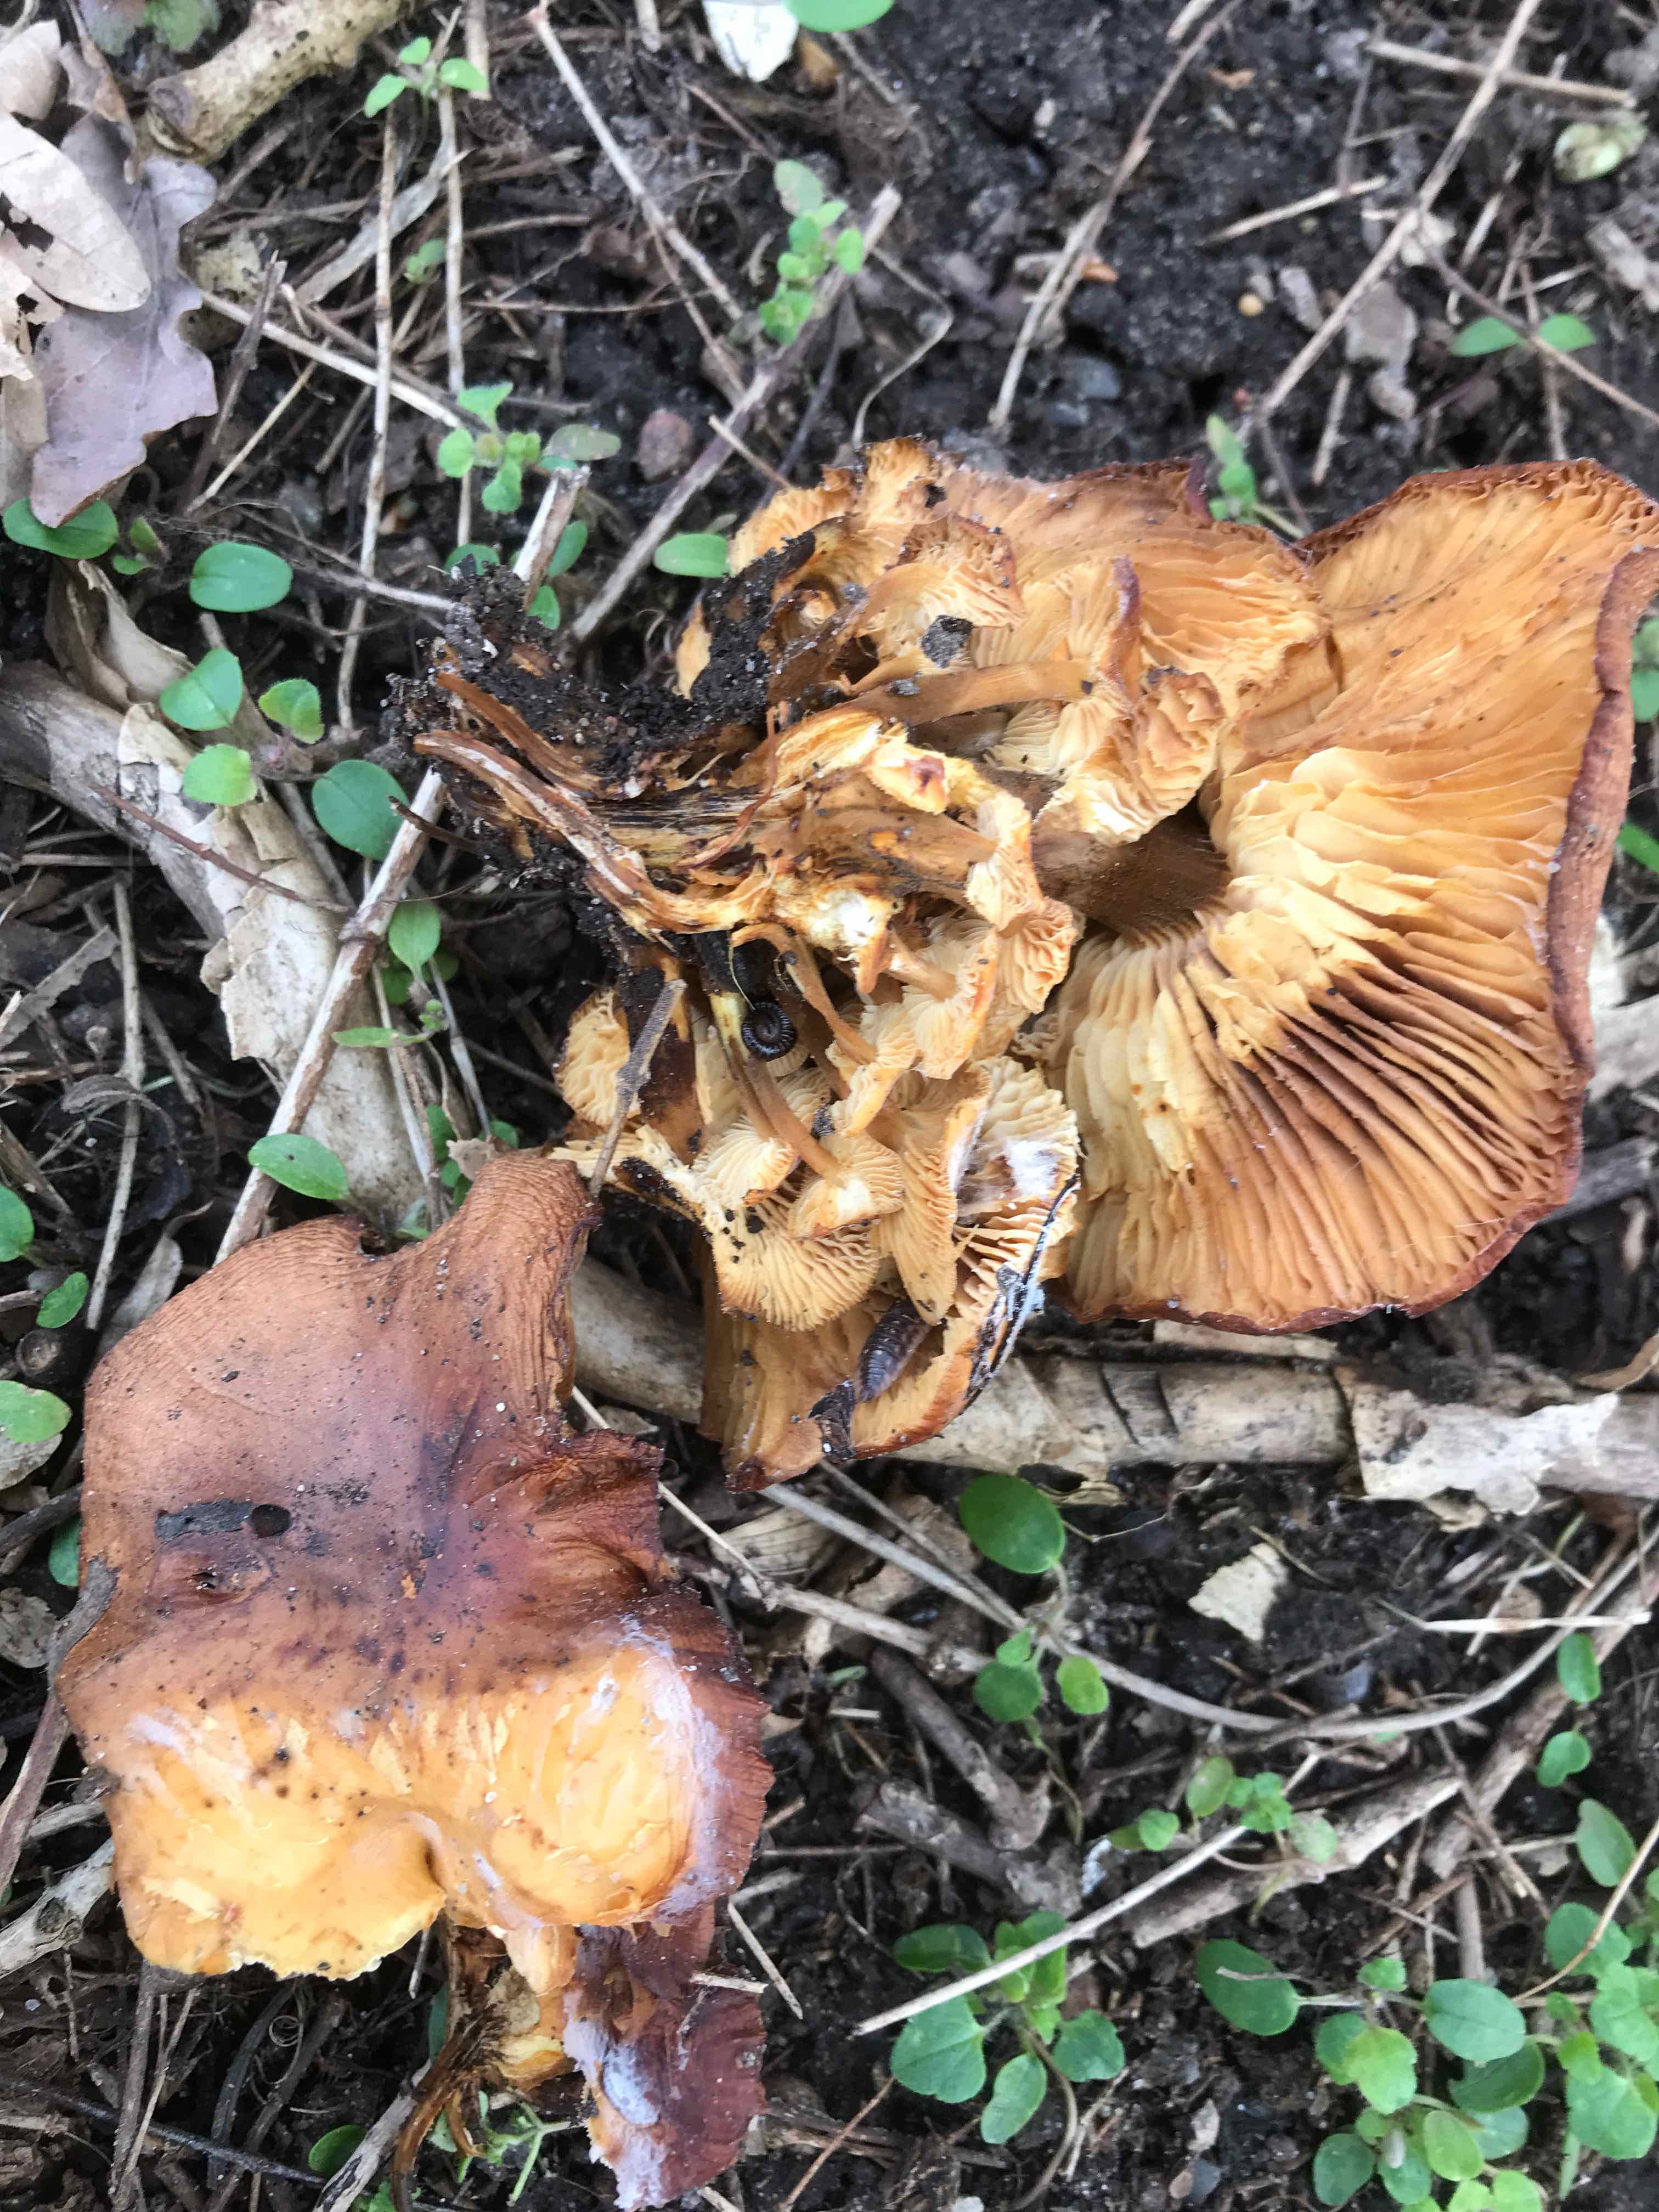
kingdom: Fungi
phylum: Basidiomycota
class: Agaricomycetes
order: Agaricales
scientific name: Agaricales
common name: champignonordenen
